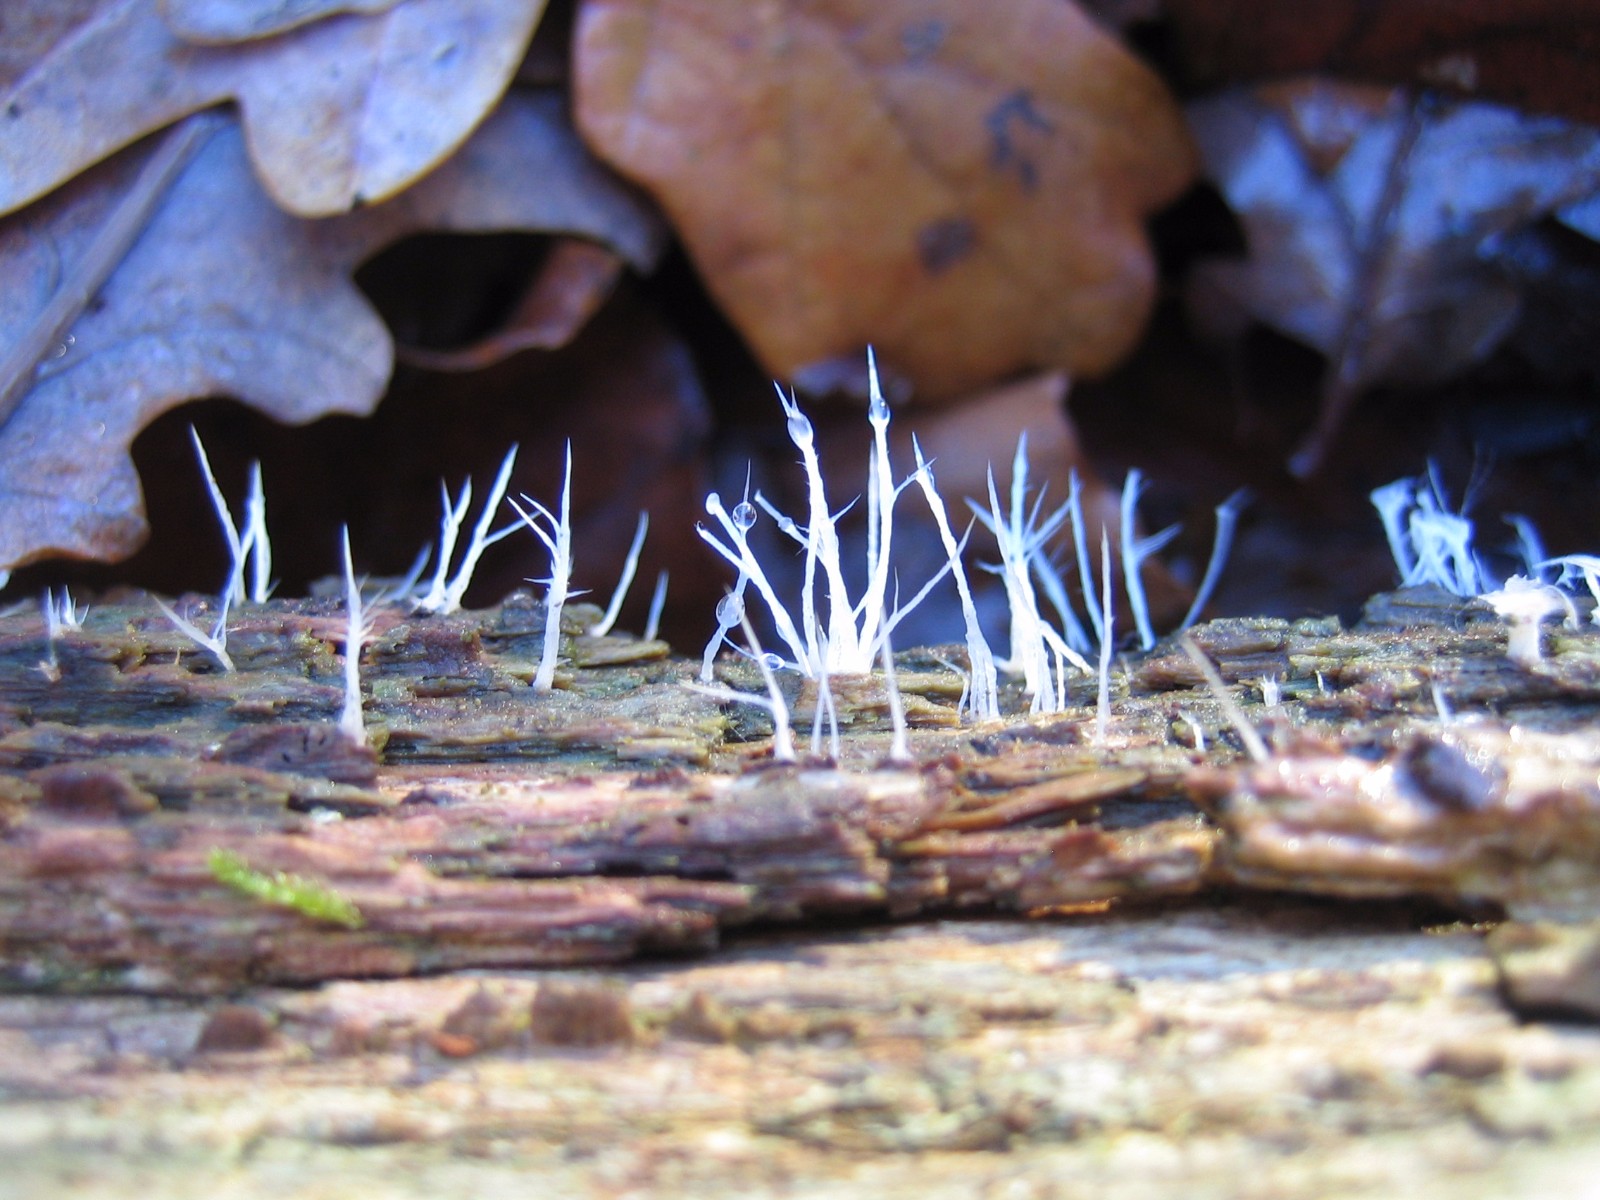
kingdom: Fungi
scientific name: Fungi
